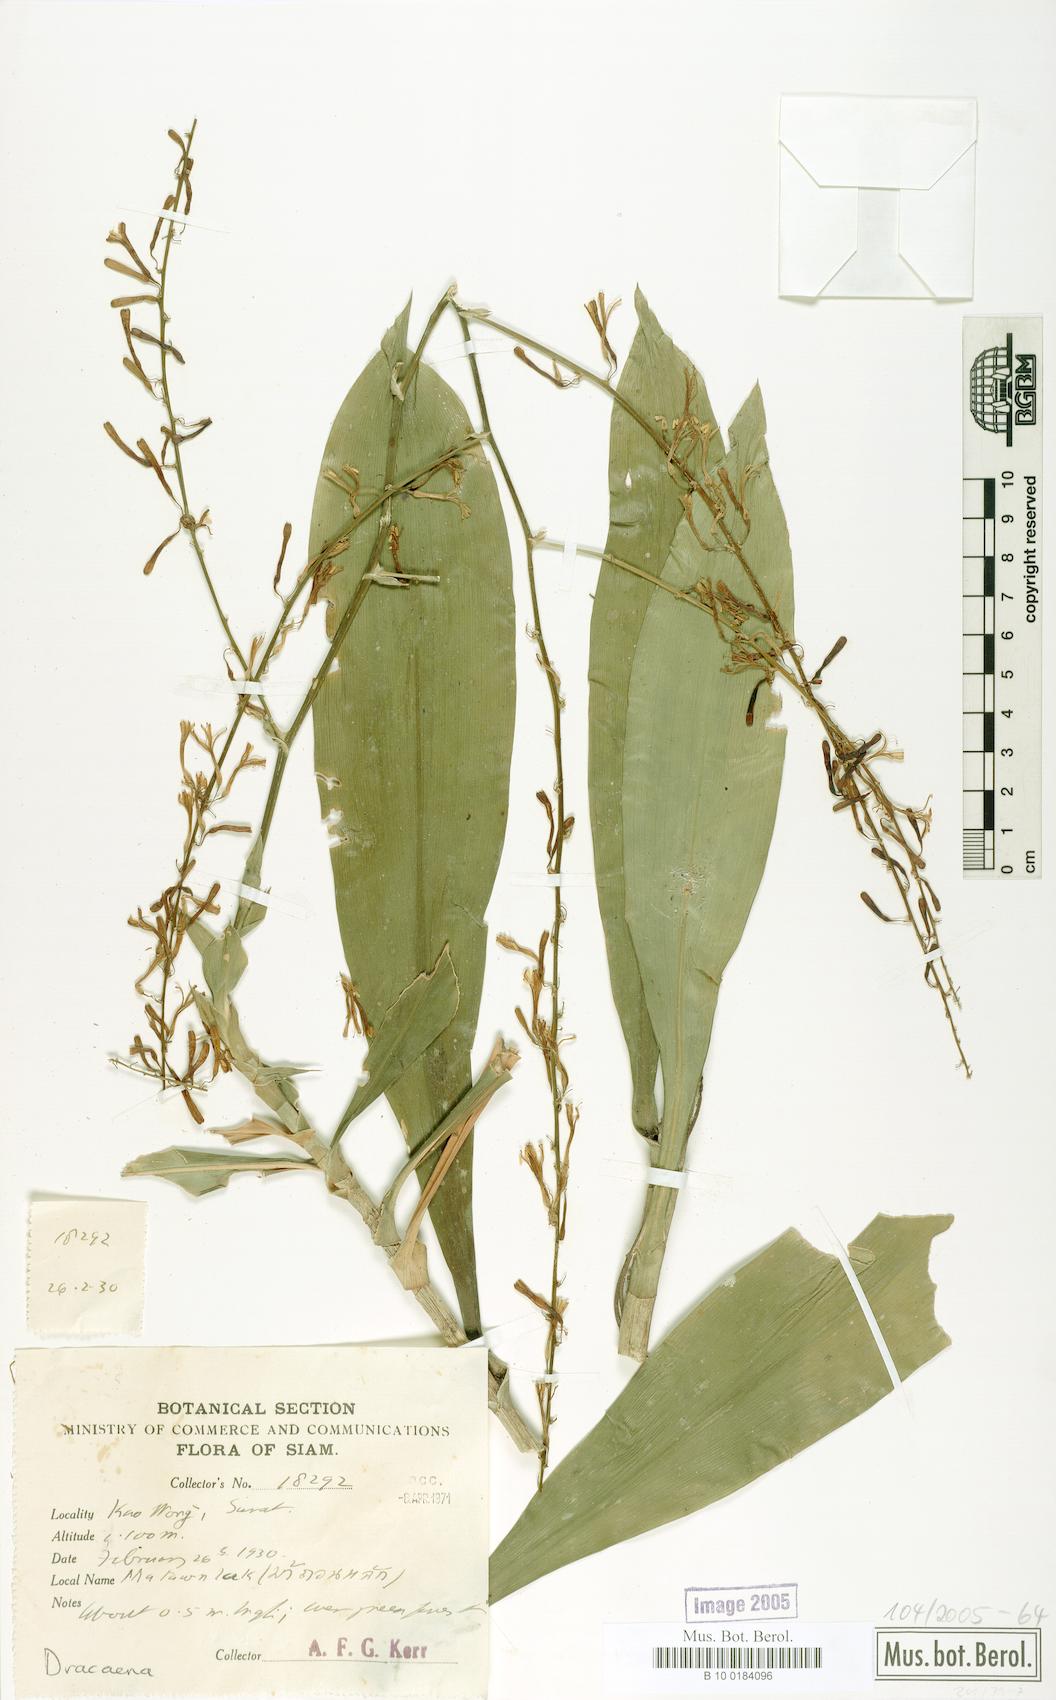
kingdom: Plantae
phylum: Tracheophyta
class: Liliopsida
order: Asparagales
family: Asparagaceae
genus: Dracaena
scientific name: Dracaena
